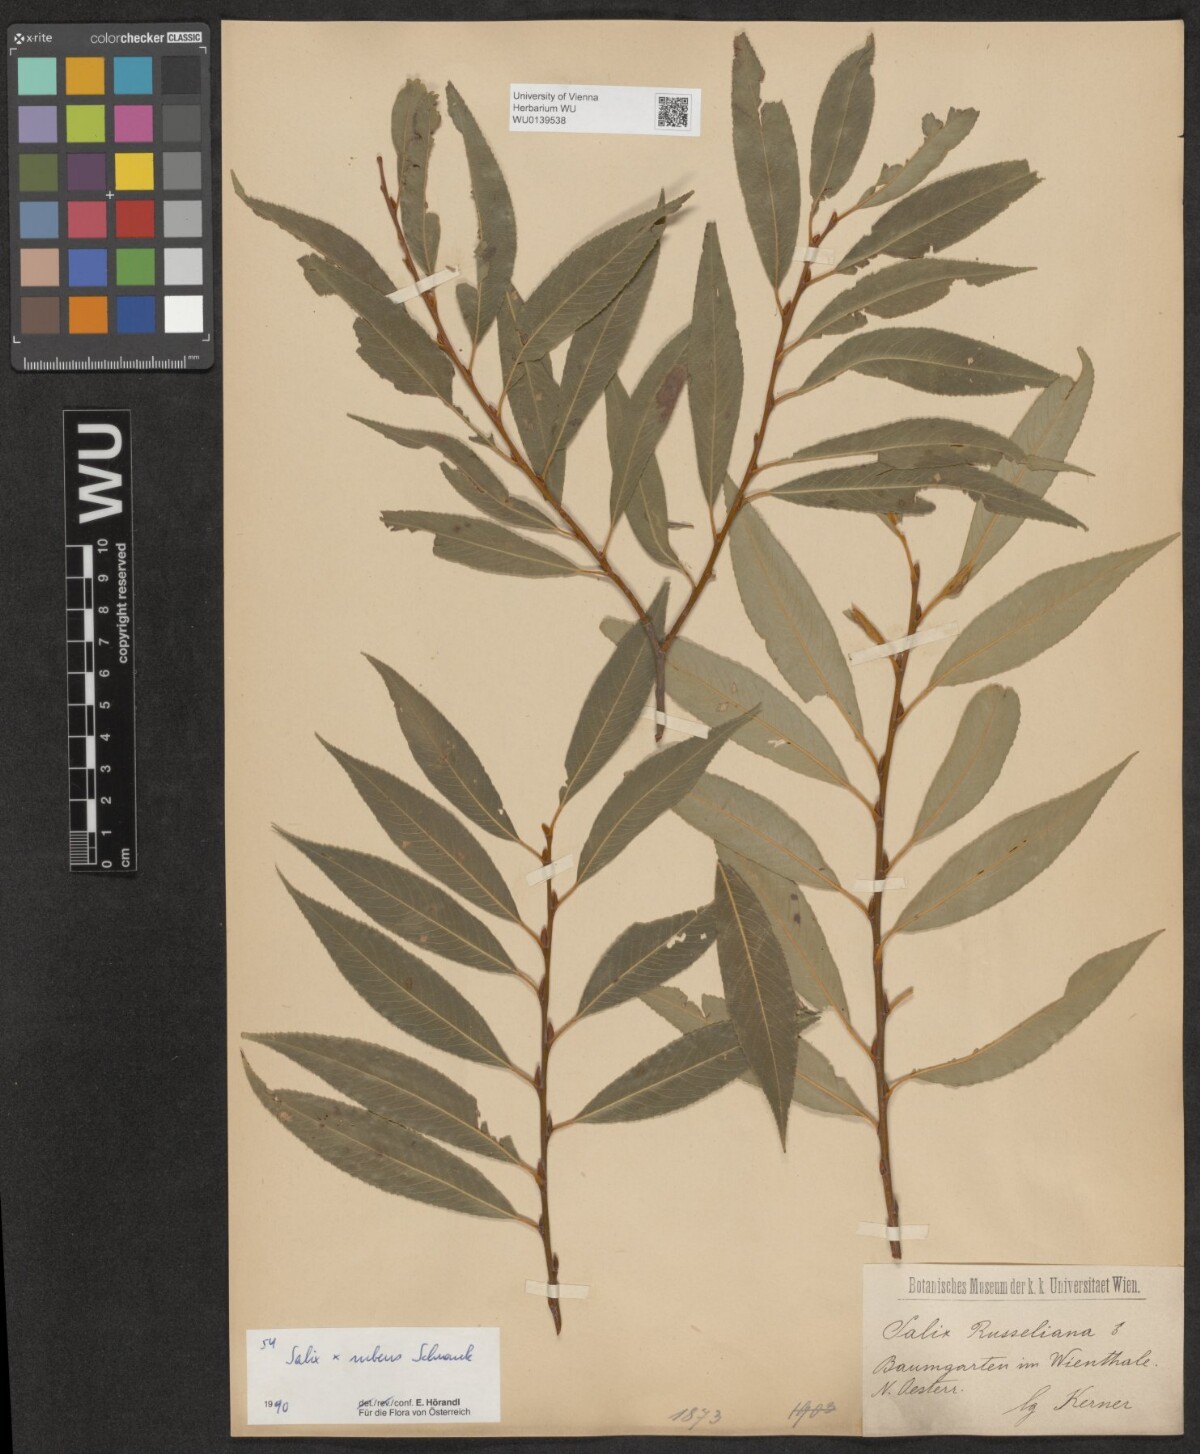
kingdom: Plantae
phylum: Tracheophyta
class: Magnoliopsida
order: Malpighiales
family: Salicaceae
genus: Salix
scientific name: Salix rubens
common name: Hybrid crack willow
